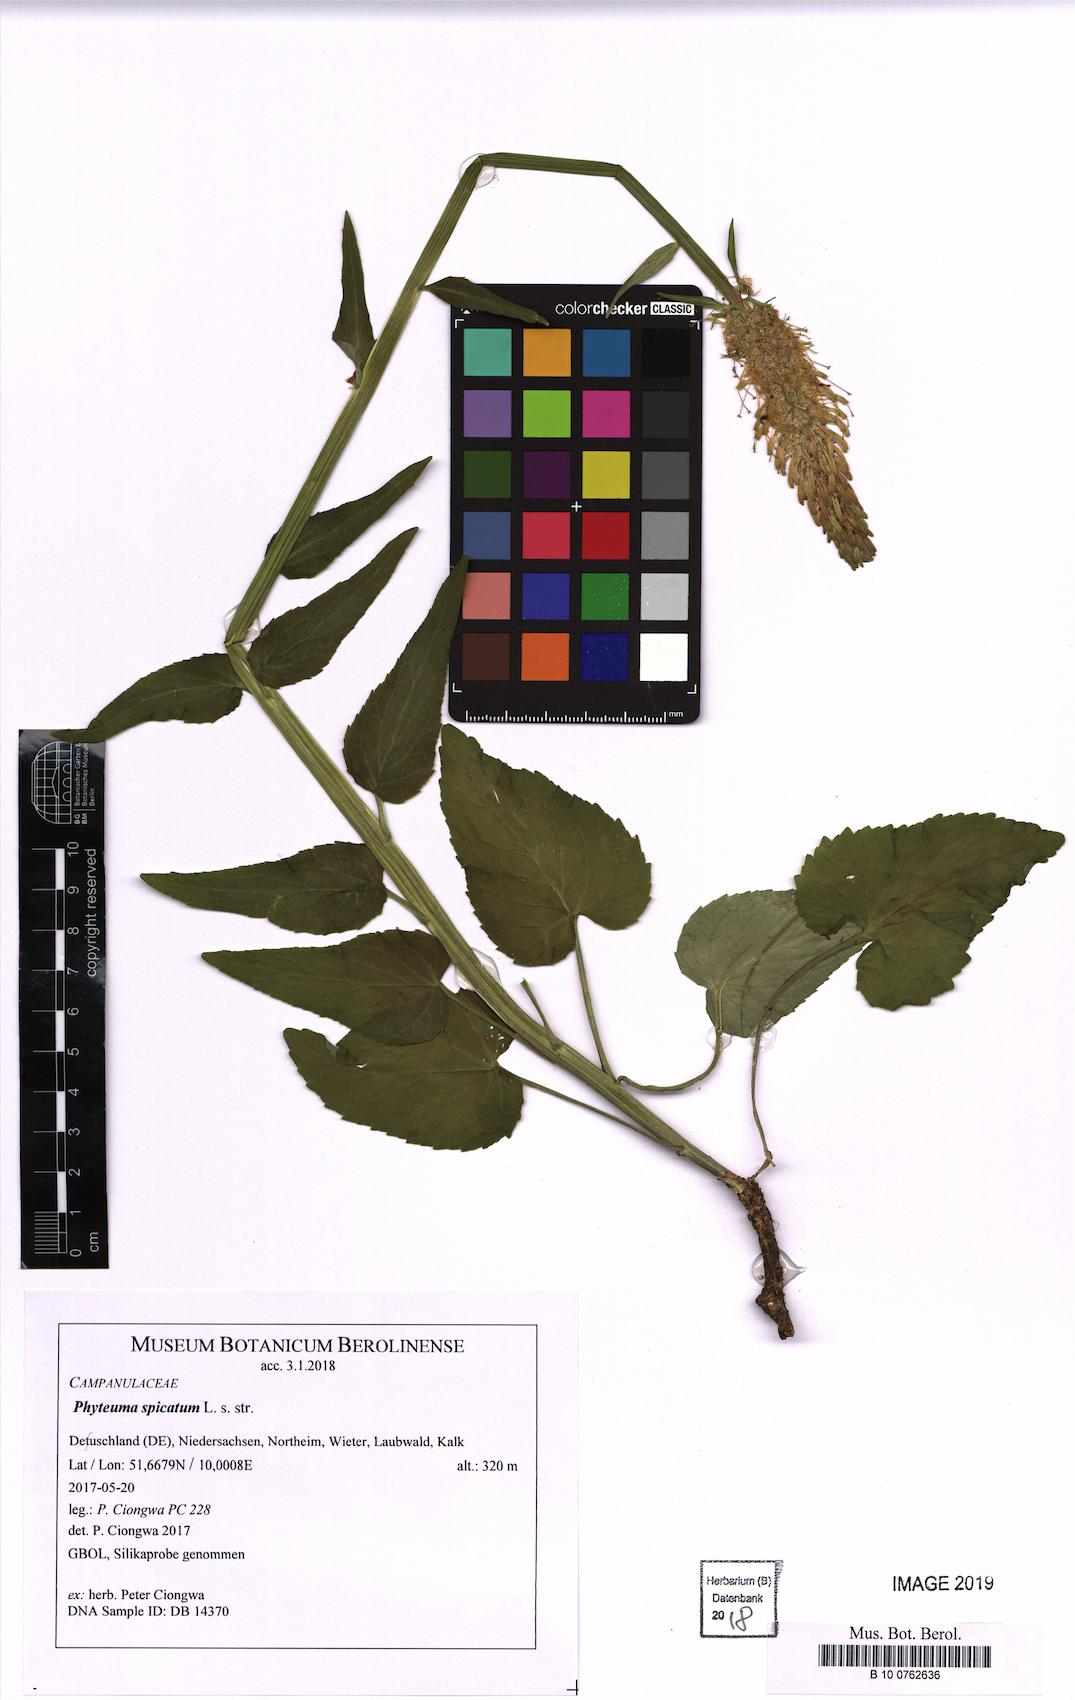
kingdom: Plantae
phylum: Tracheophyta
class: Magnoliopsida
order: Asterales
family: Campanulaceae
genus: Phyteuma
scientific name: Phyteuma spicatum
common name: Spiked rampion
